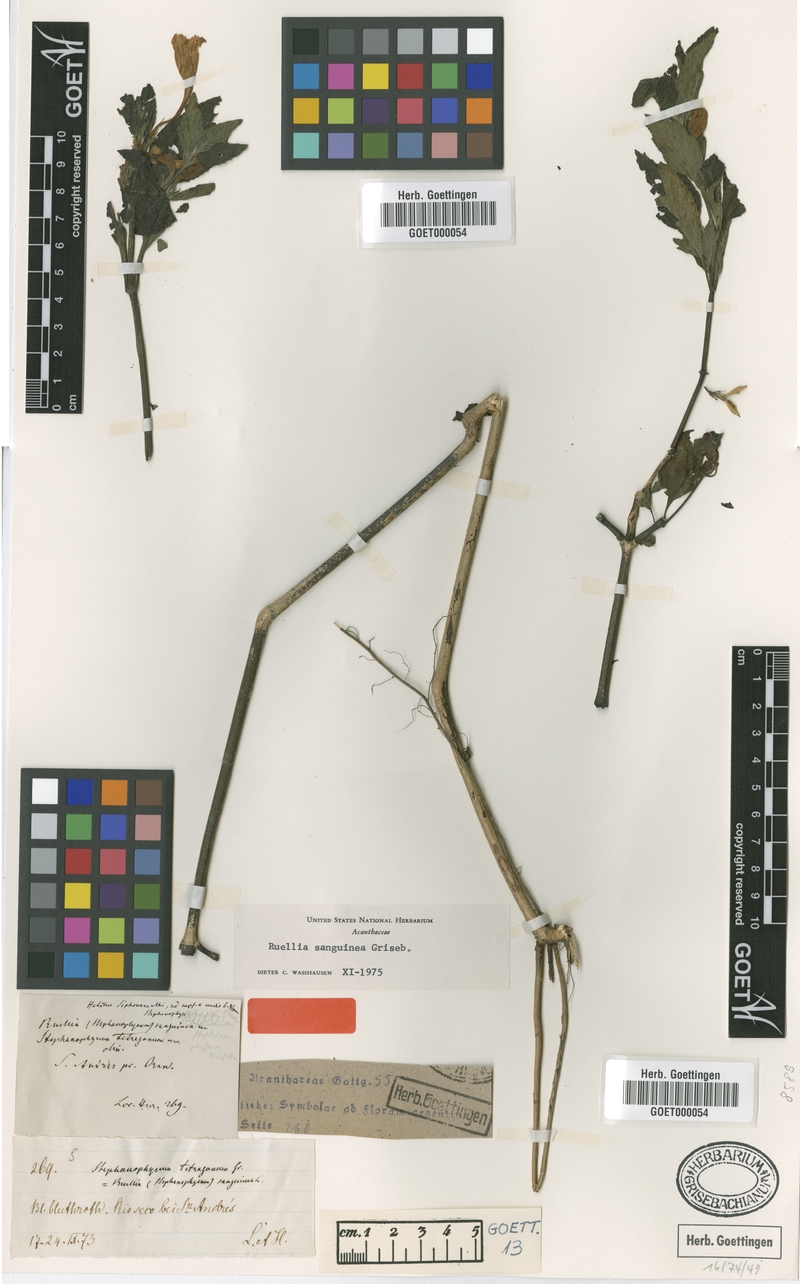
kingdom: Plantae
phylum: Tracheophyta
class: Magnoliopsida
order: Lamiales
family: Acanthaceae
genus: Ruellia
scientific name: Ruellia sanguinea
